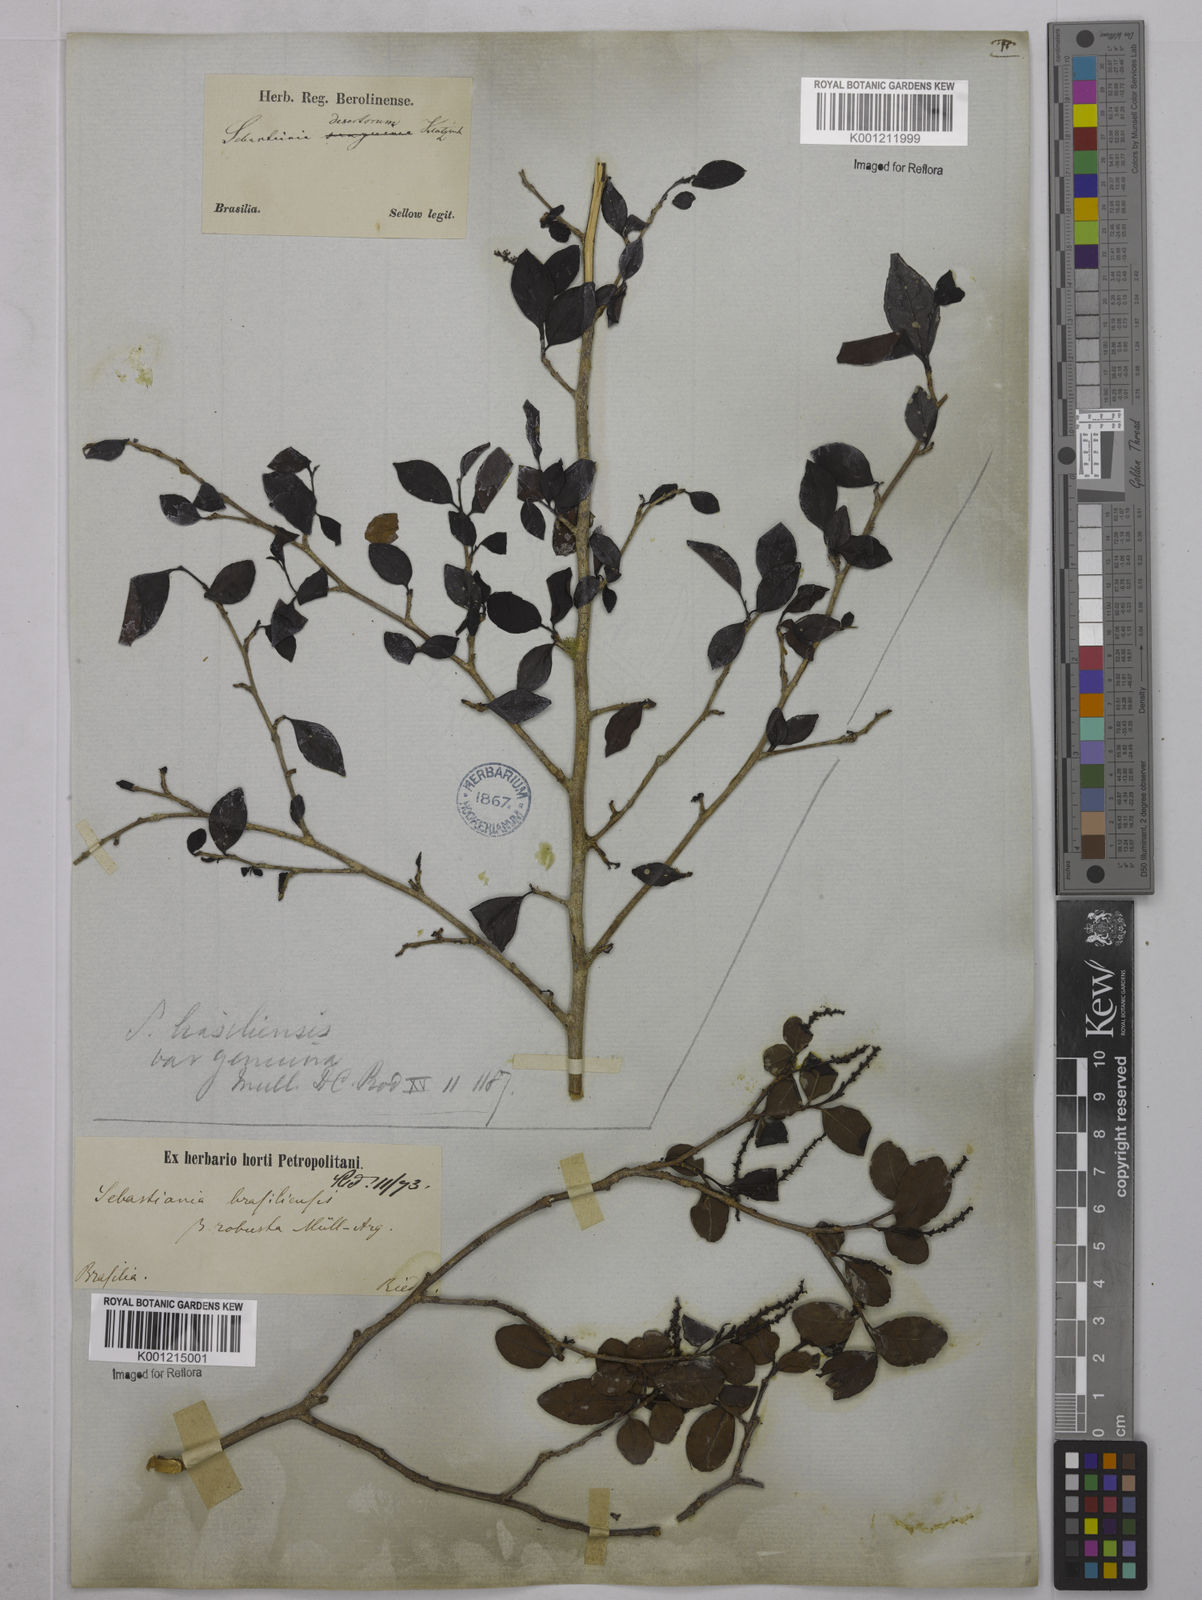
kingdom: Plantae
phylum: Tracheophyta
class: Magnoliopsida
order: Malpighiales
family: Euphorbiaceae
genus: Sebastiania
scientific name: Sebastiania brasiliensis
